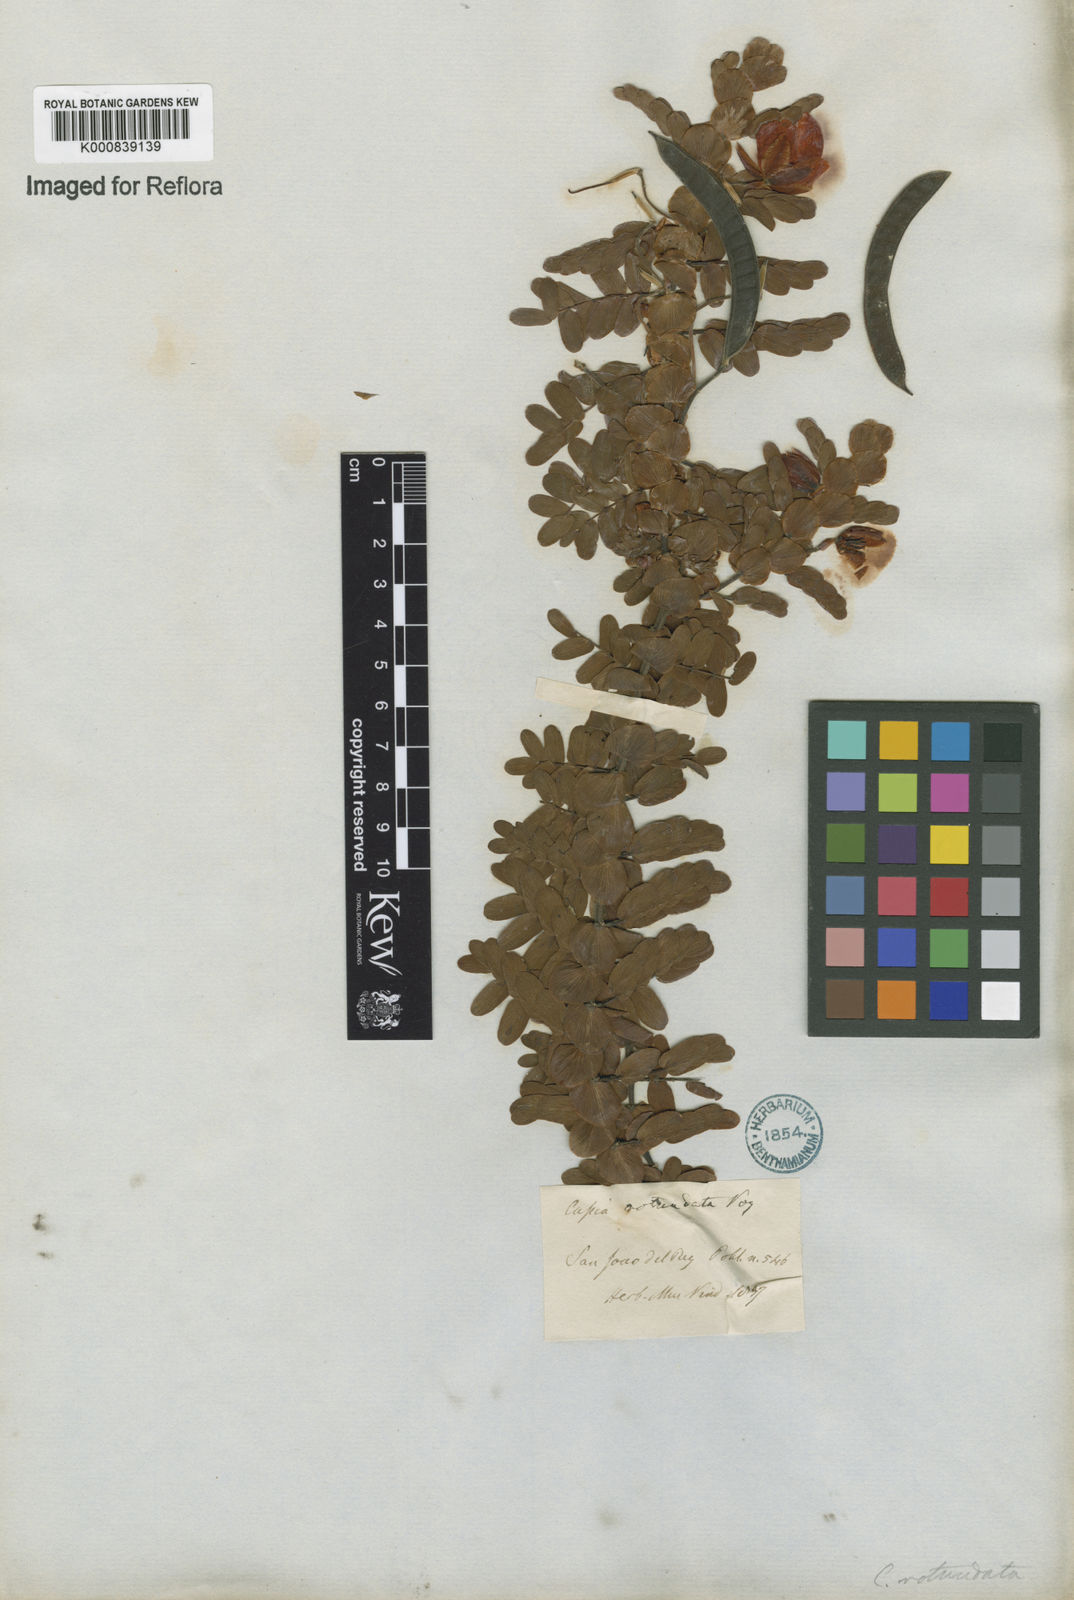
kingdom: Plantae
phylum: Tracheophyta
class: Magnoliopsida
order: Fabales
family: Fabaceae
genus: Chamaecrista
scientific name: Chamaecrista
